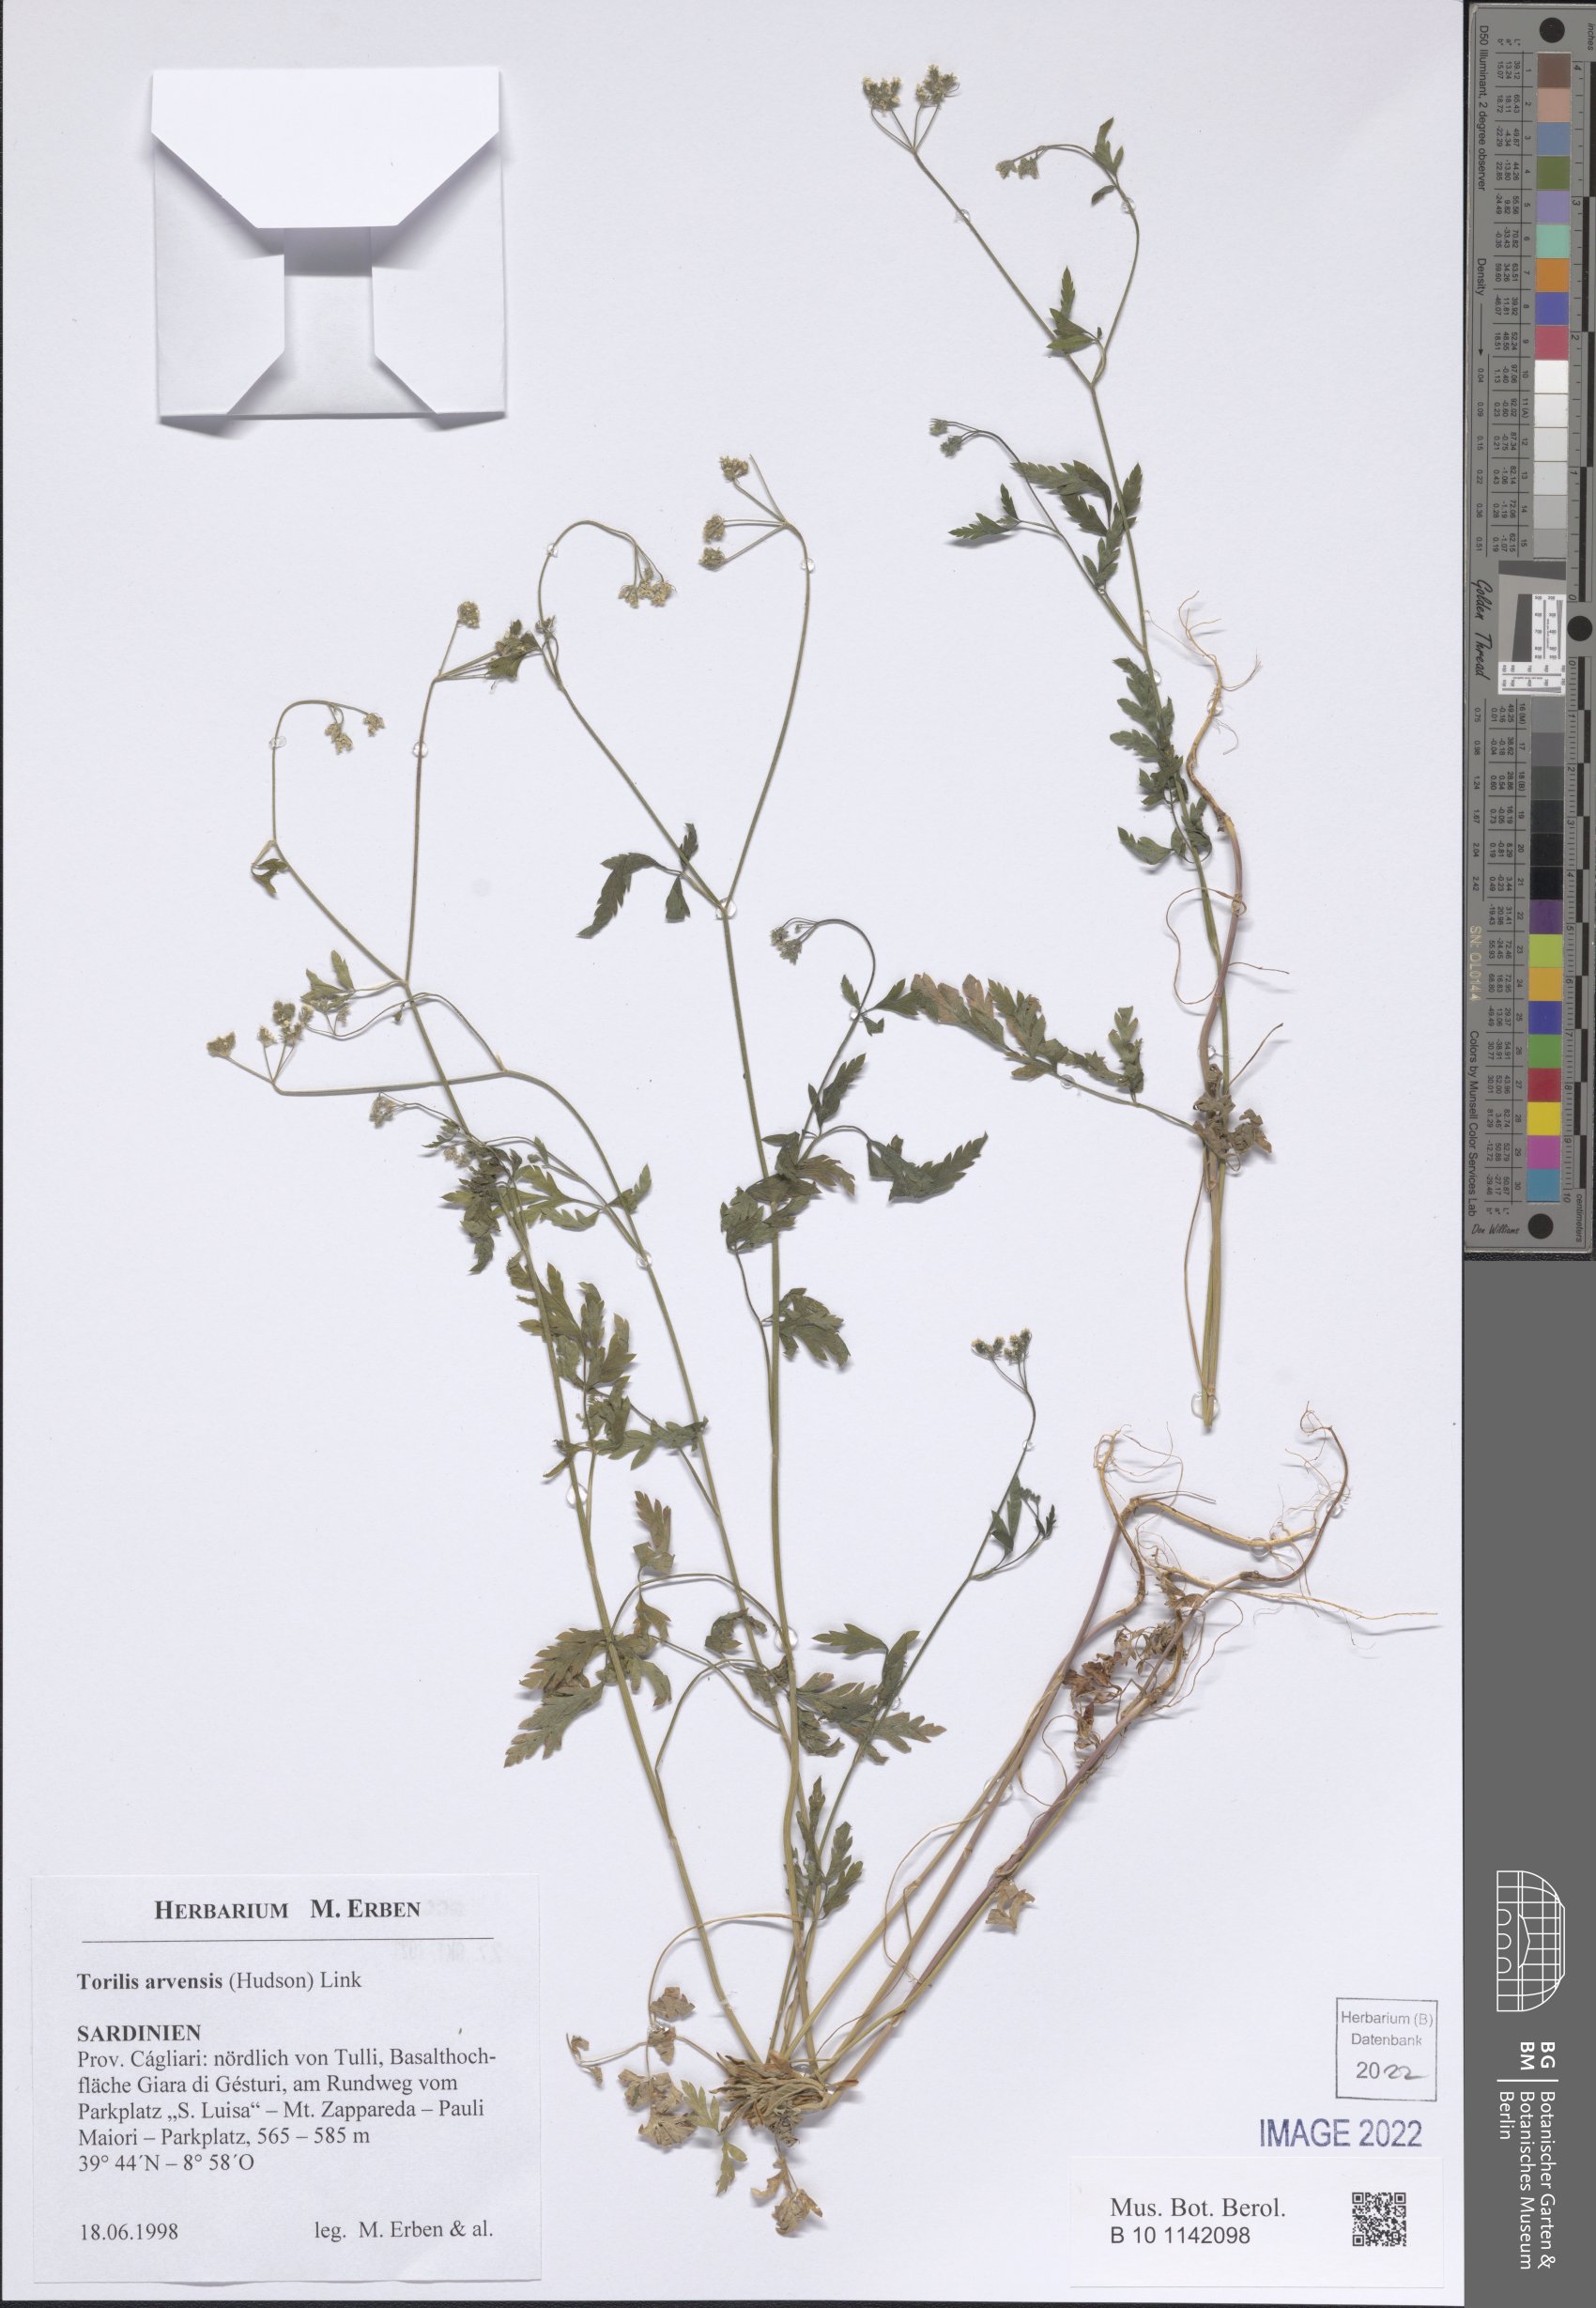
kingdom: Plantae
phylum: Tracheophyta
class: Magnoliopsida
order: Apiales
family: Apiaceae
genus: Torilis
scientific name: Torilis arvensis
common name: Spreading hedge-parsley
